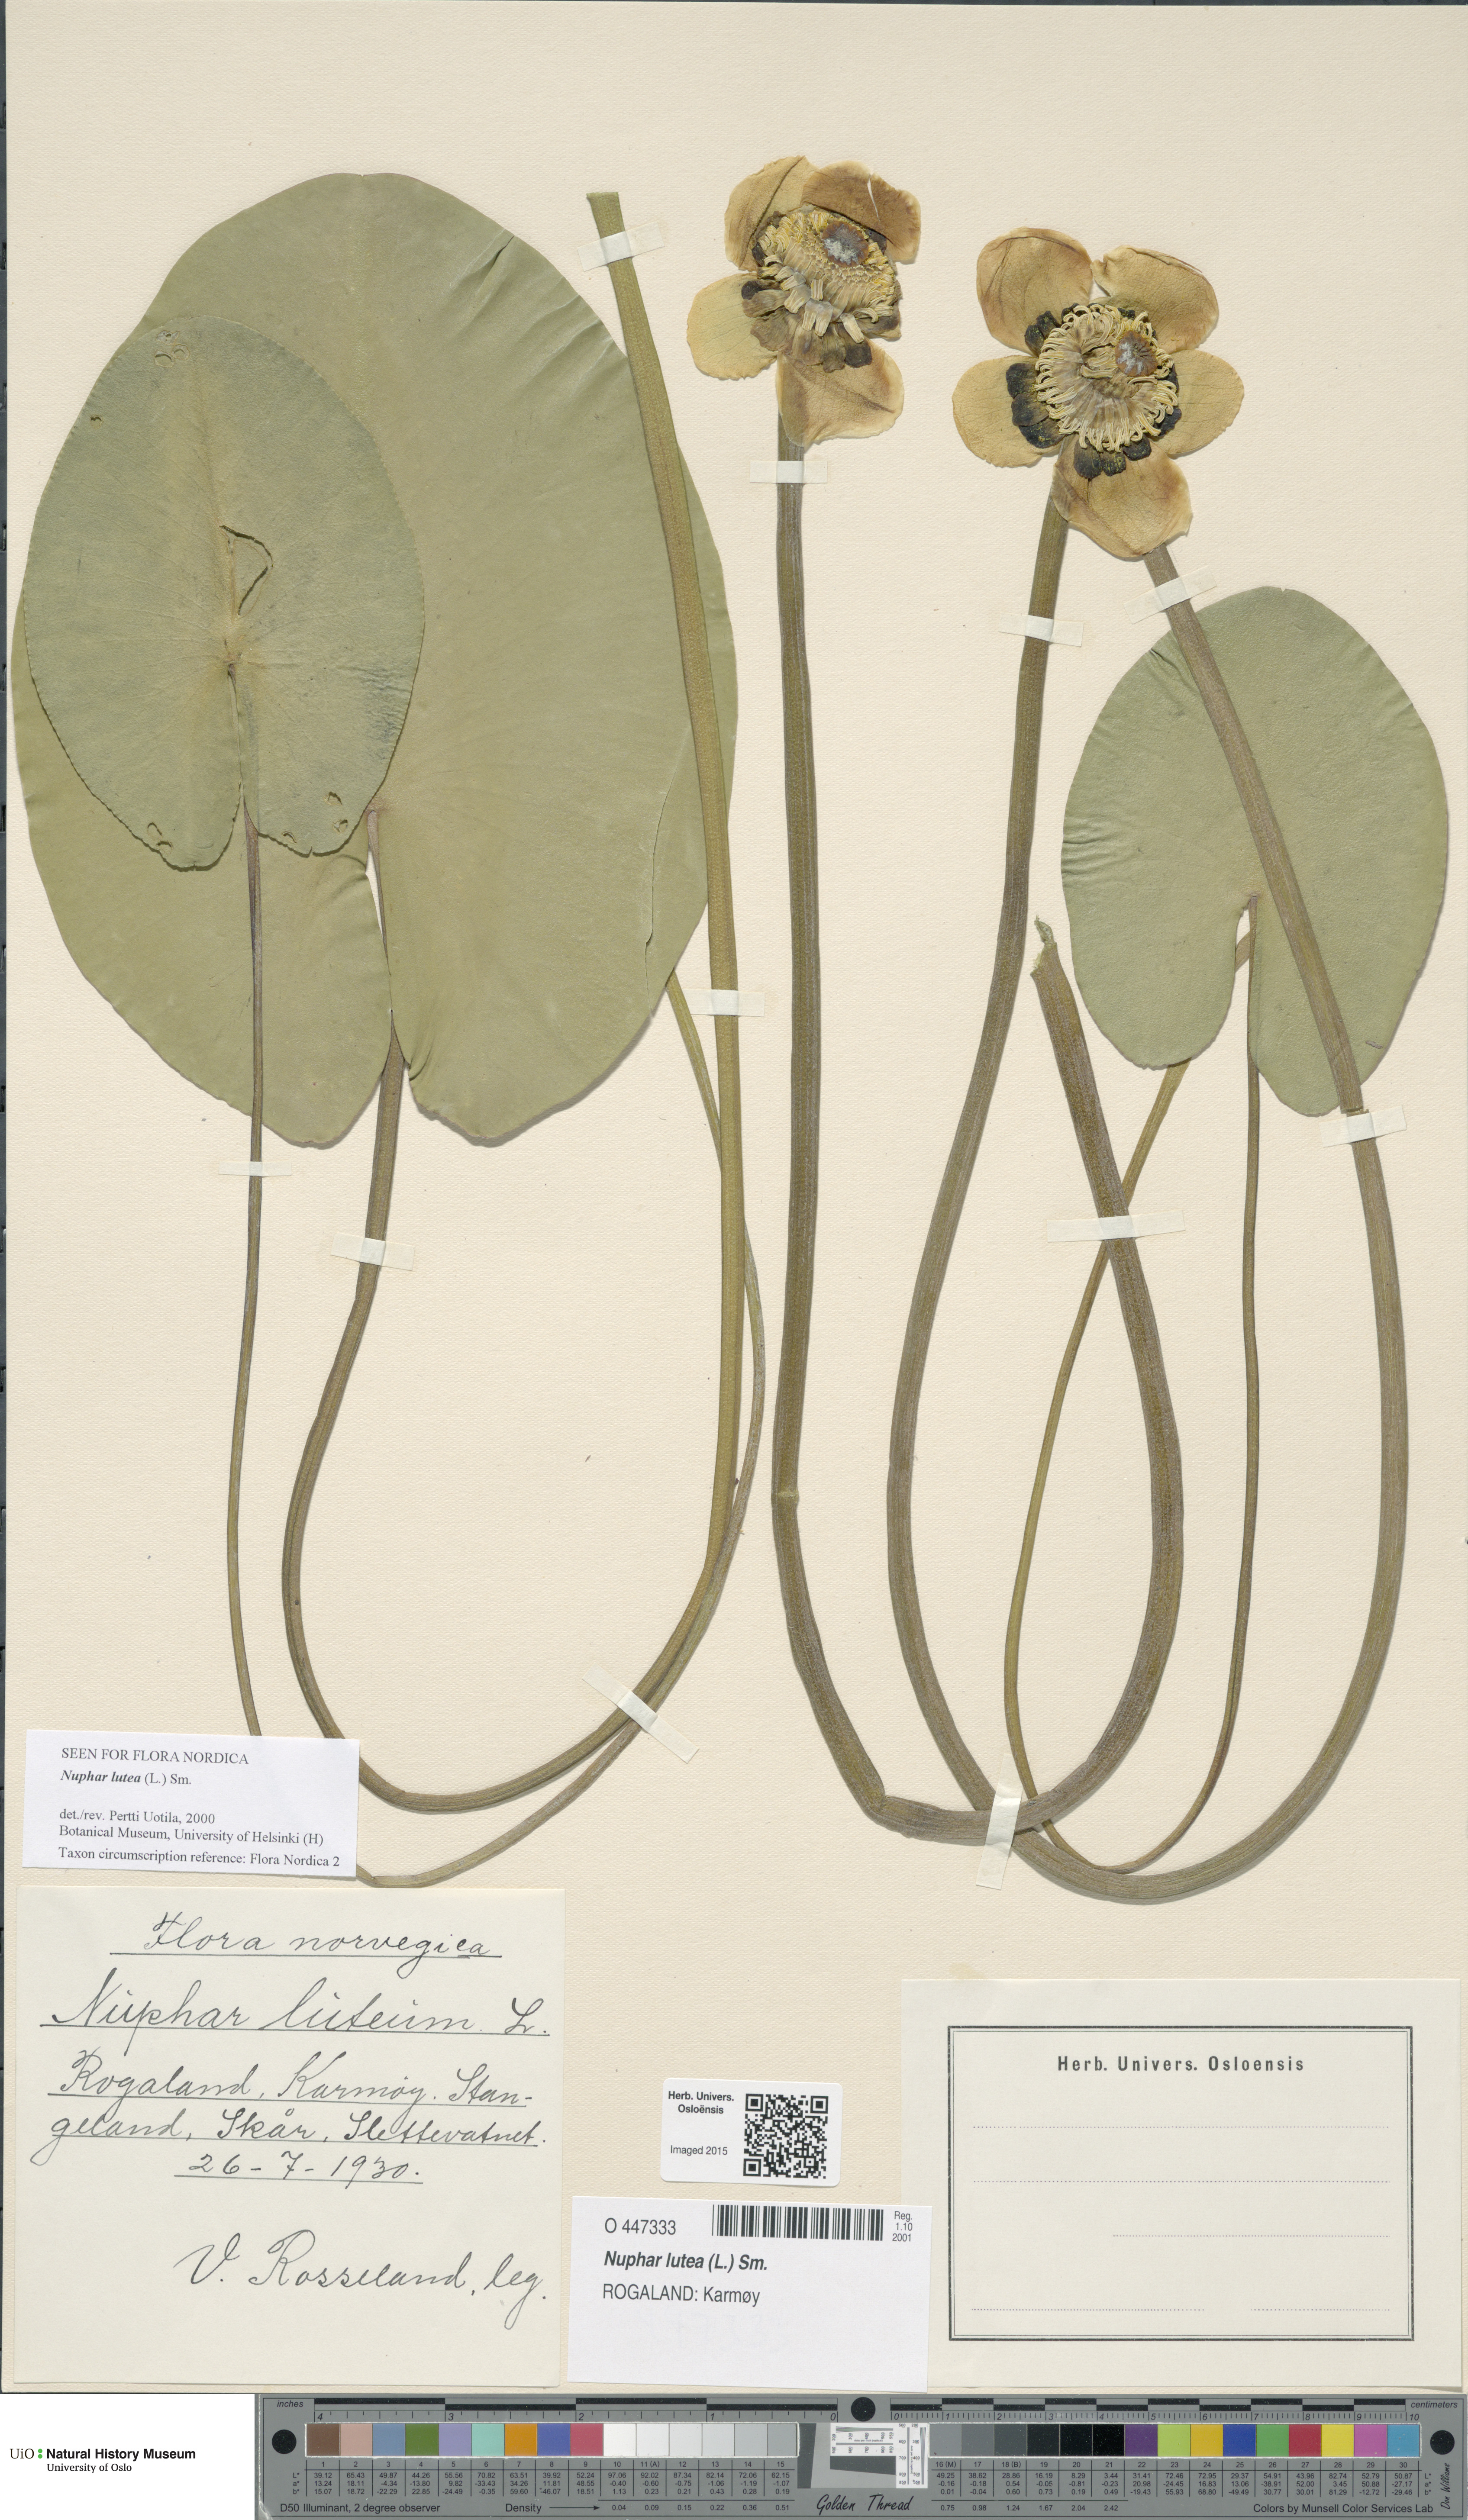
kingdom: Plantae
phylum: Tracheophyta
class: Magnoliopsida
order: Nymphaeales
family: Nymphaeaceae
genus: Nuphar
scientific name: Nuphar lutea
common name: Yellow water-lily
